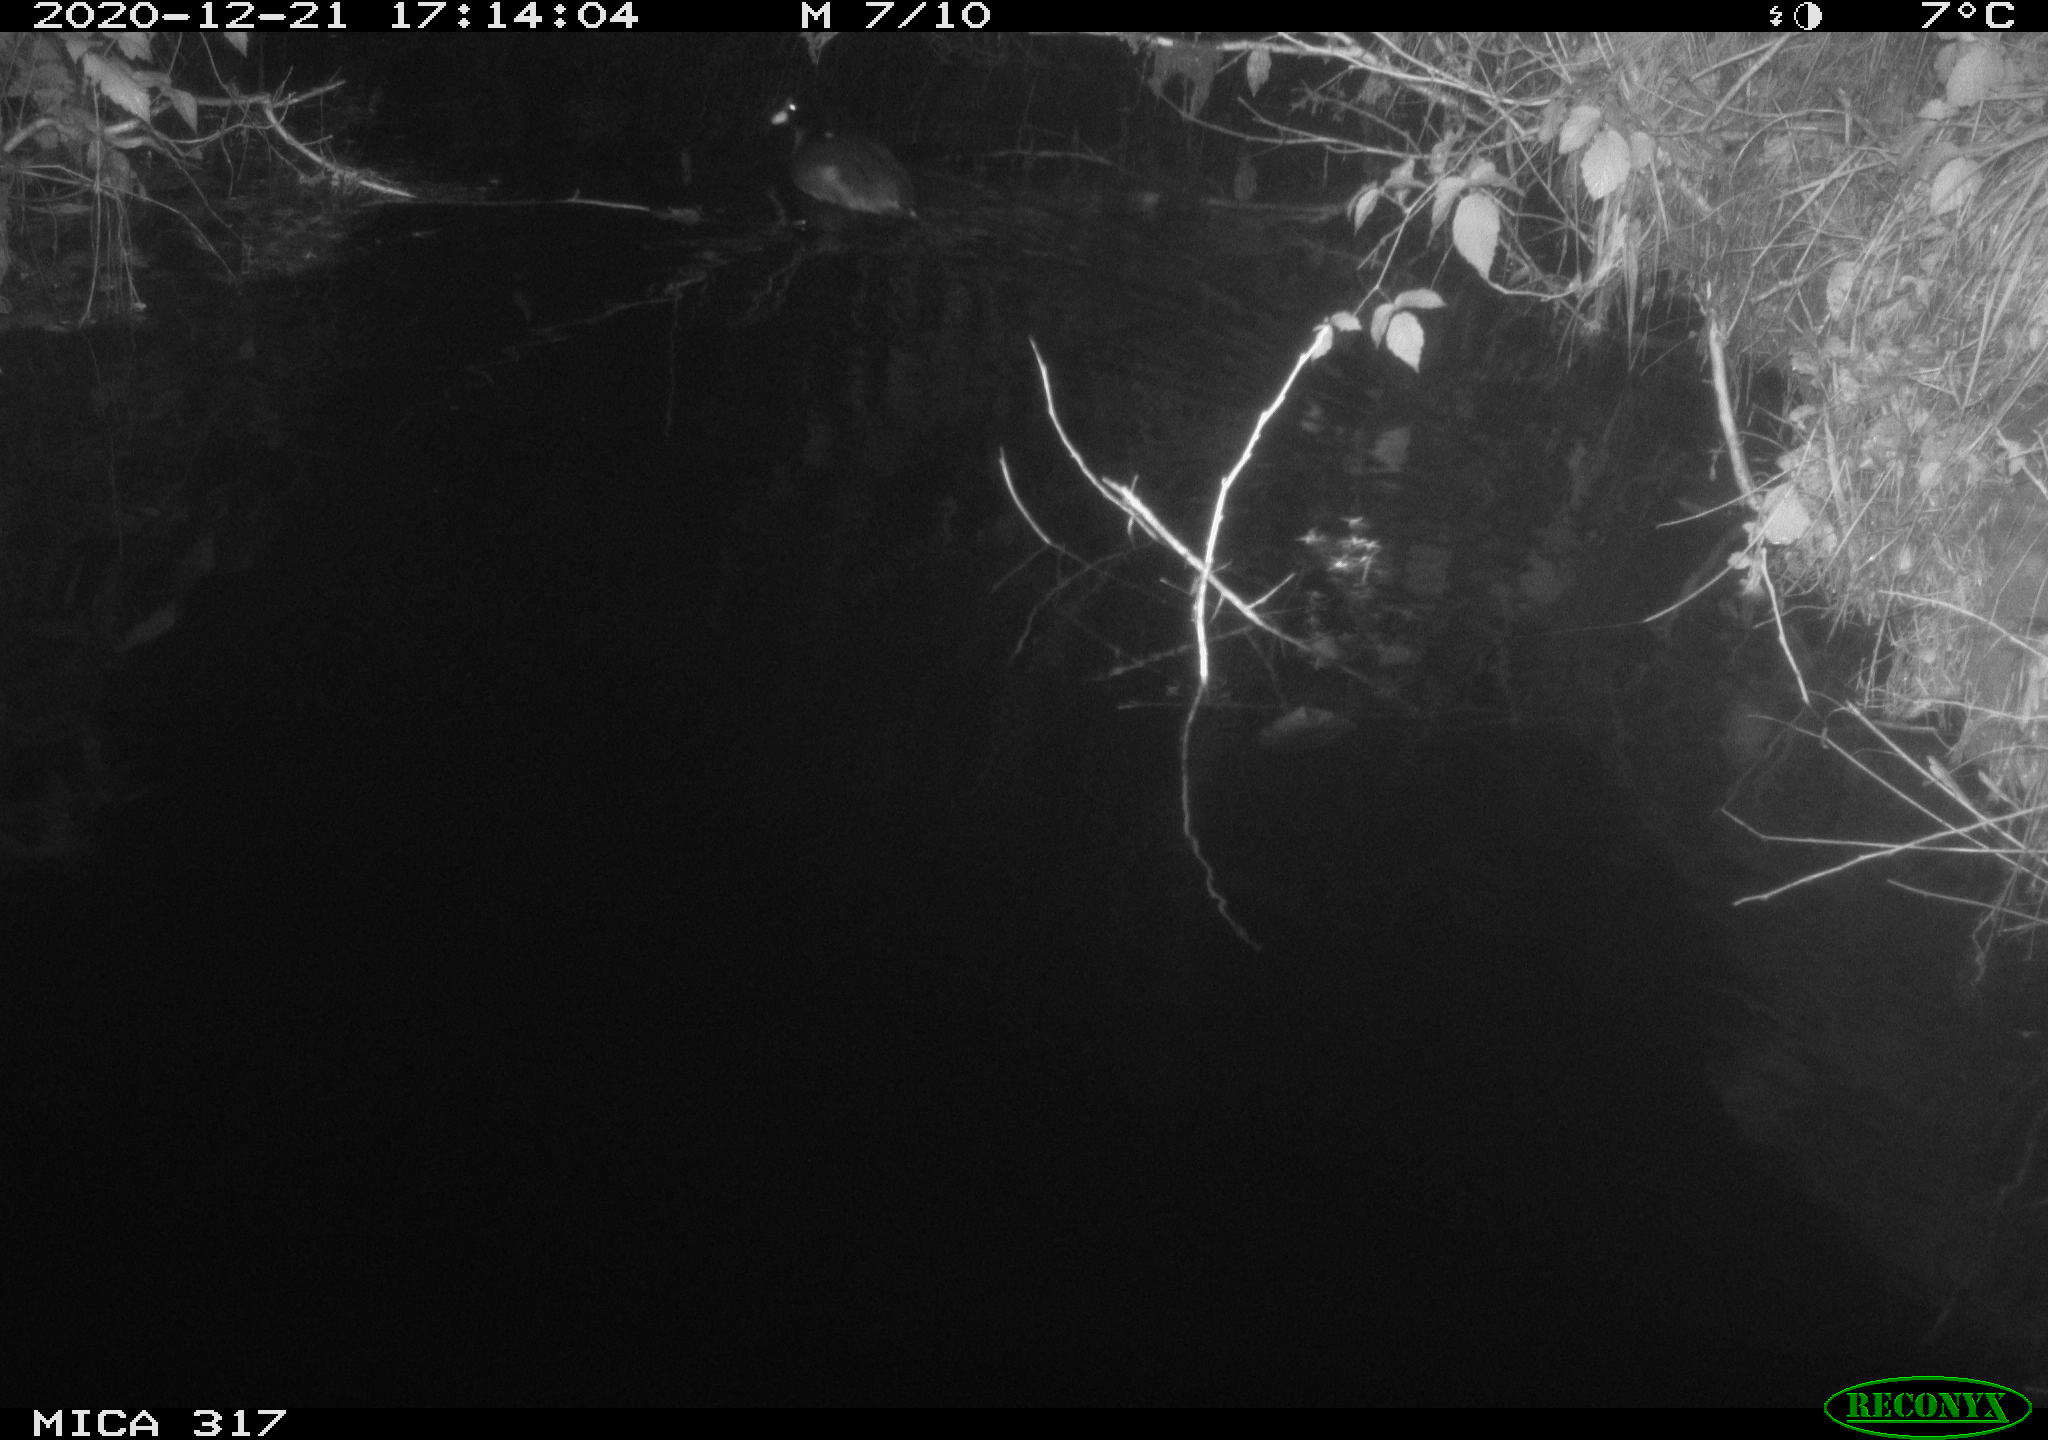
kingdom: Animalia
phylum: Chordata
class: Aves
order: Gruiformes
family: Rallidae
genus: Fulica
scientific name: Fulica atra
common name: Eurasian coot
